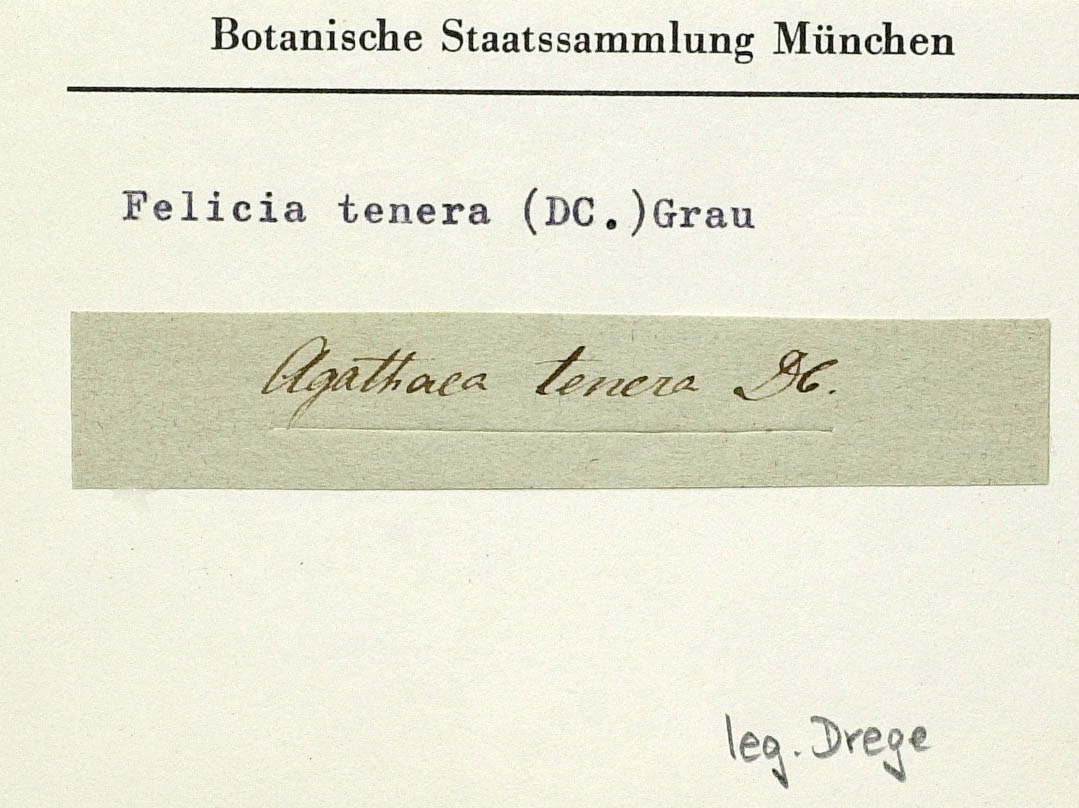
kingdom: Plantae
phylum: Tracheophyta
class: Magnoliopsida
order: Asterales
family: Asteraceae
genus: Felicia
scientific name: Felicia tenera
